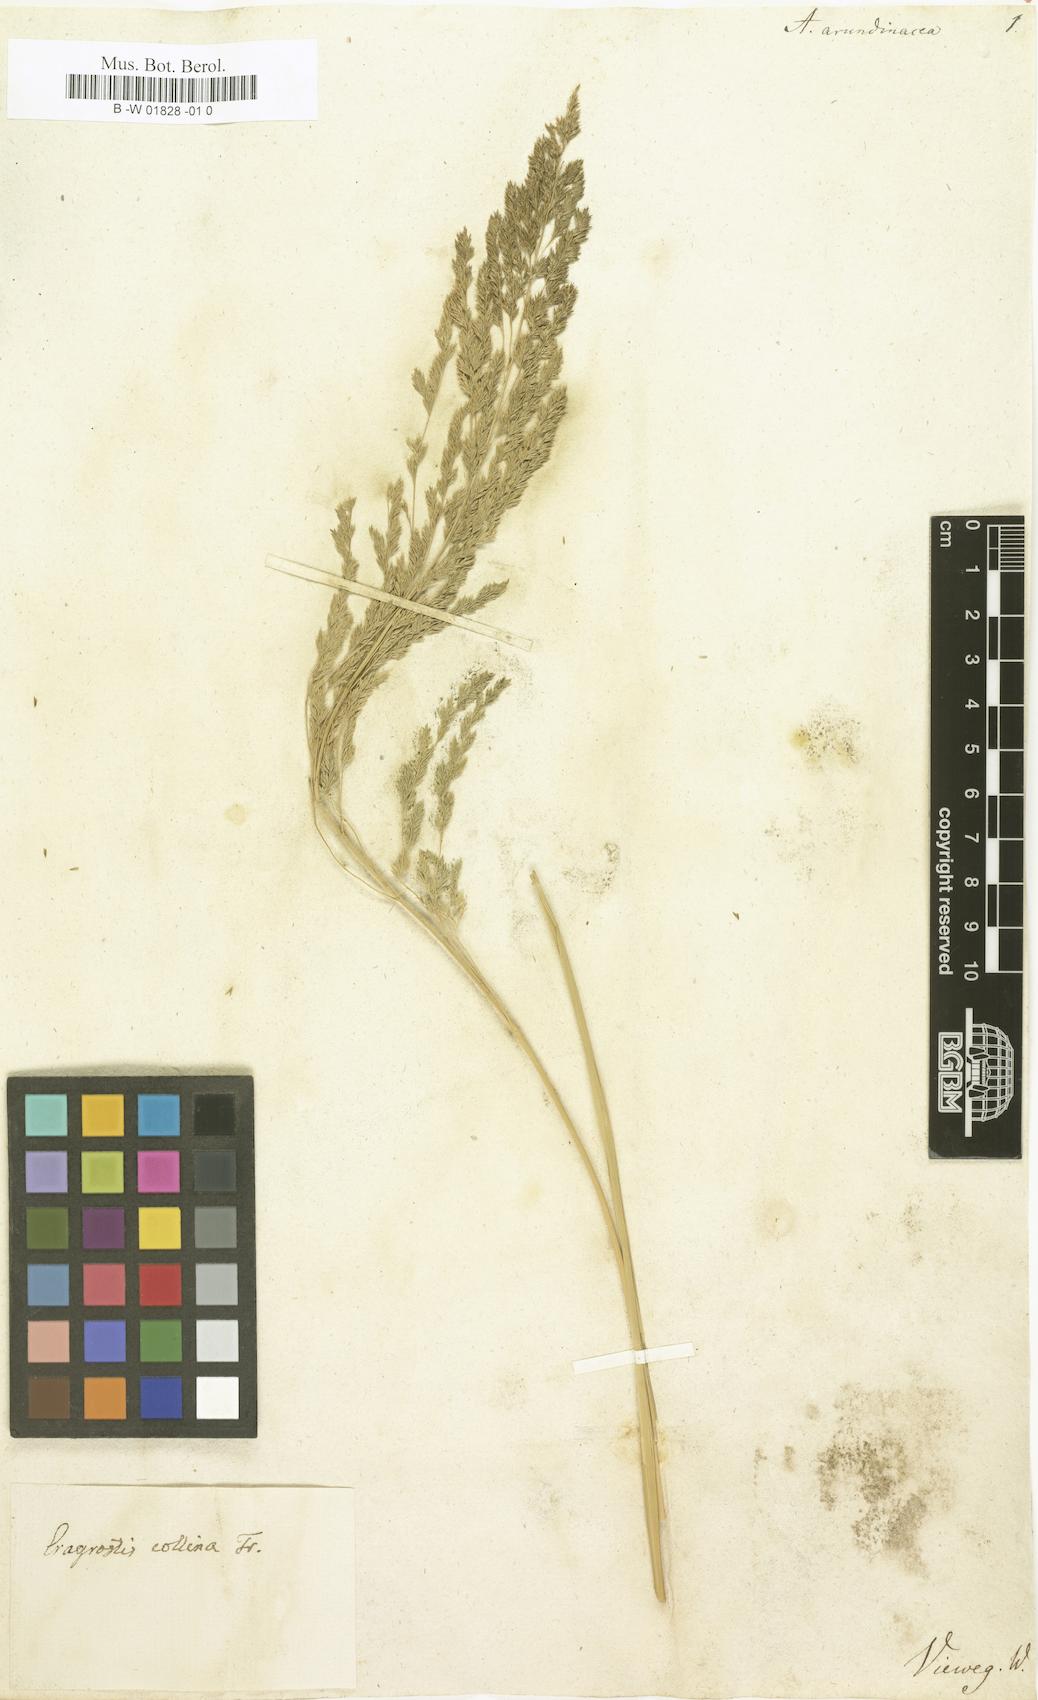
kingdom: Plantae
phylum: Tracheophyta
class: Liliopsida
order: Poales
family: Poaceae
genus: Eragrostis
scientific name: Eragrostis collina
